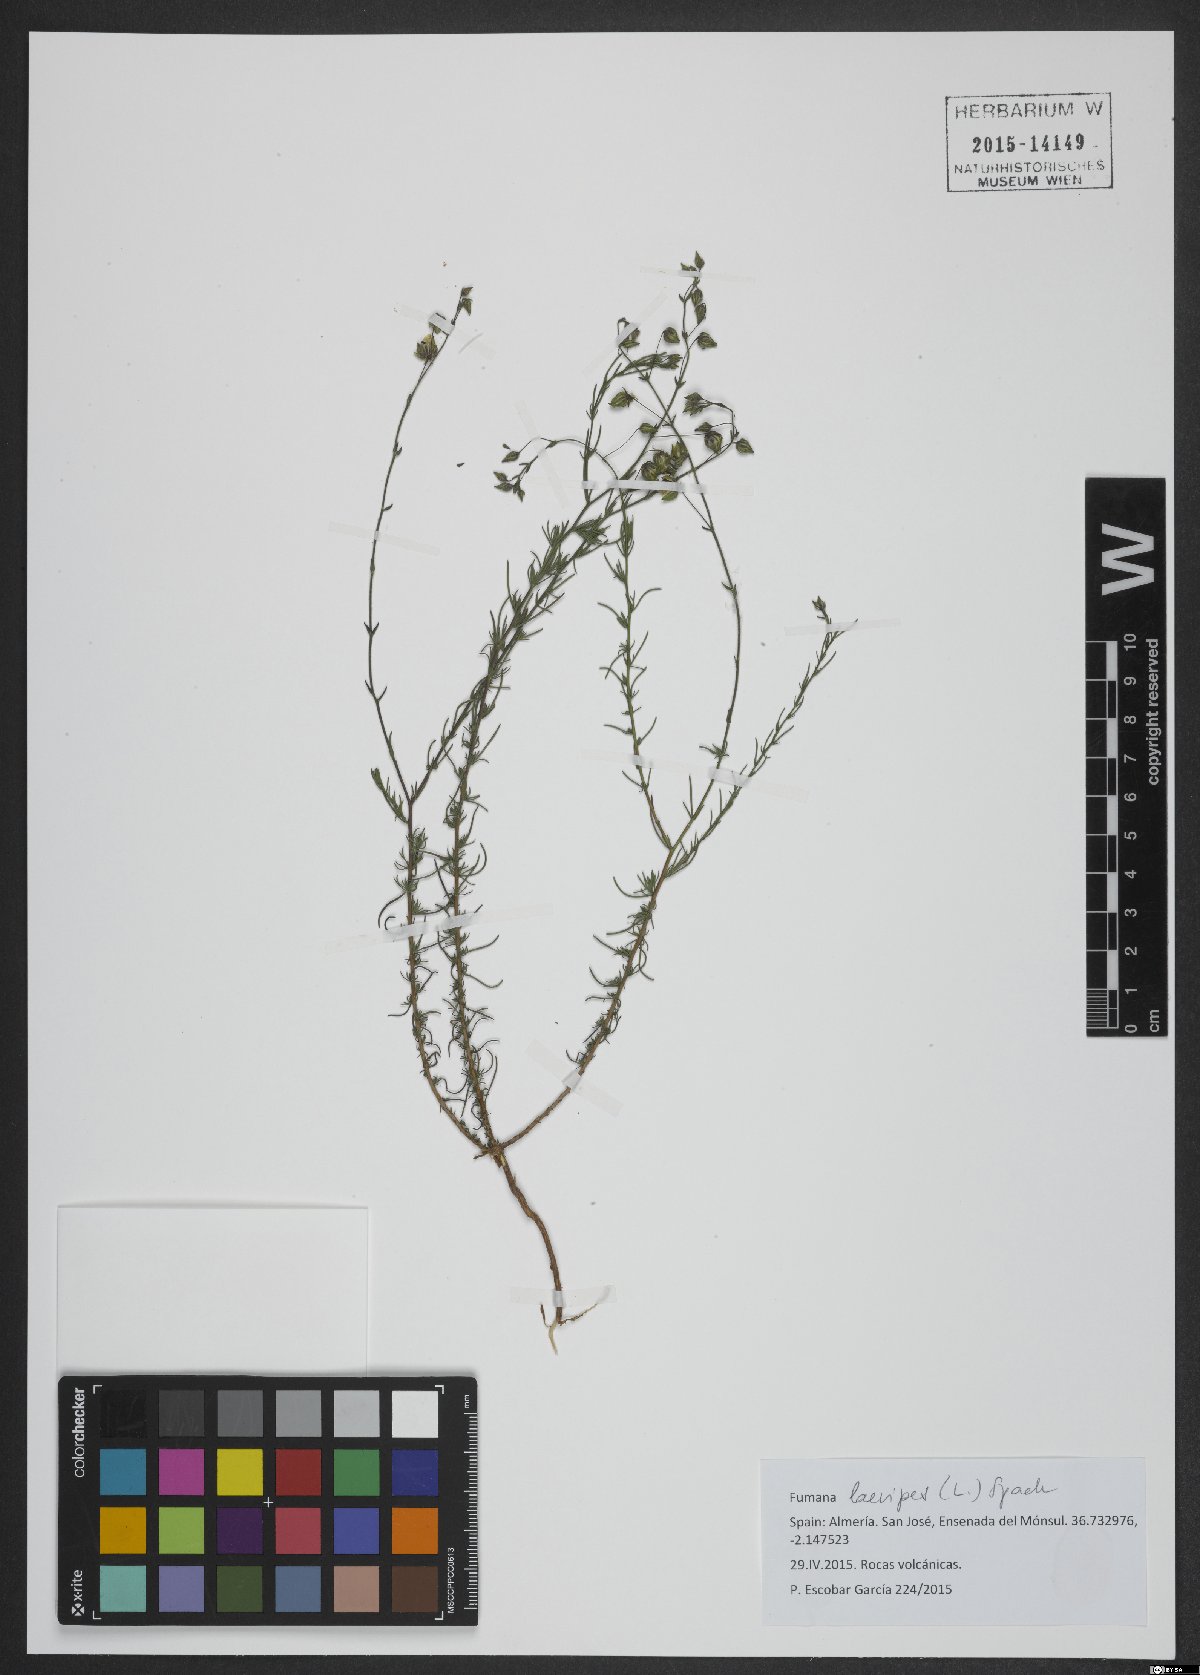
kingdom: Plantae
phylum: Tracheophyta
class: Magnoliopsida
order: Malvales
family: Cistaceae
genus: Fumana
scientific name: Fumana laevipes
